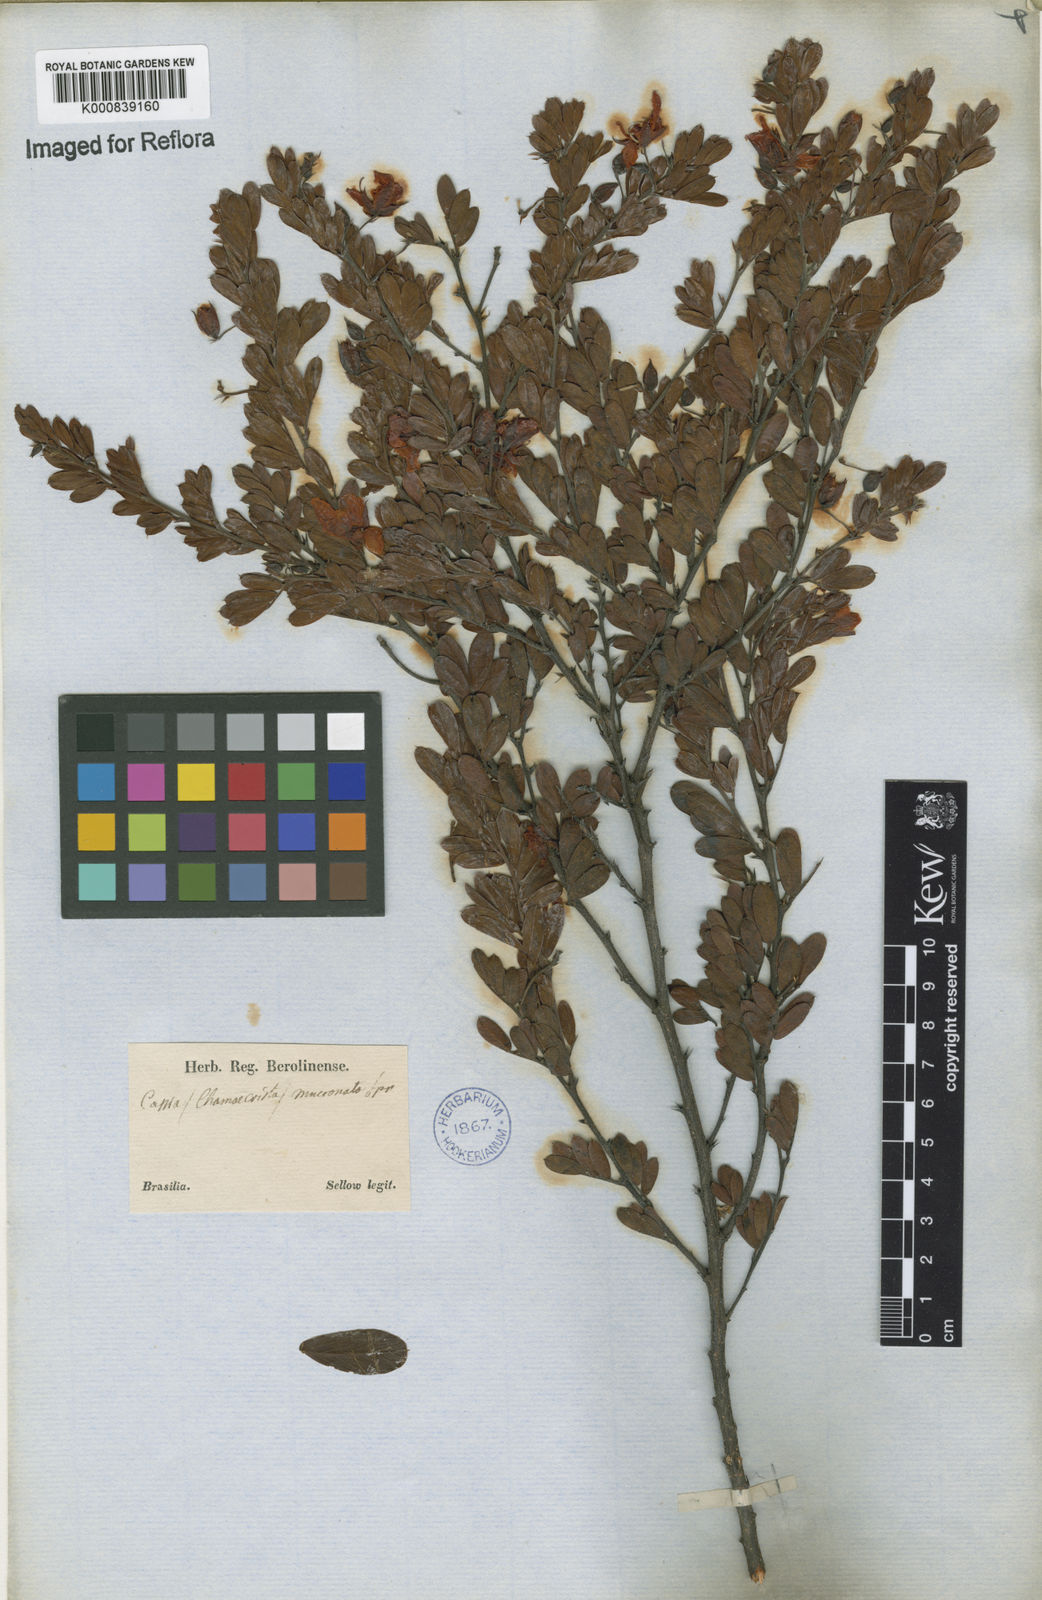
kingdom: Plantae
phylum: Tracheophyta
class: Magnoliopsida
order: Fabales
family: Fabaceae
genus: Chamaecrista
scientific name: Chamaecrista mucronata
